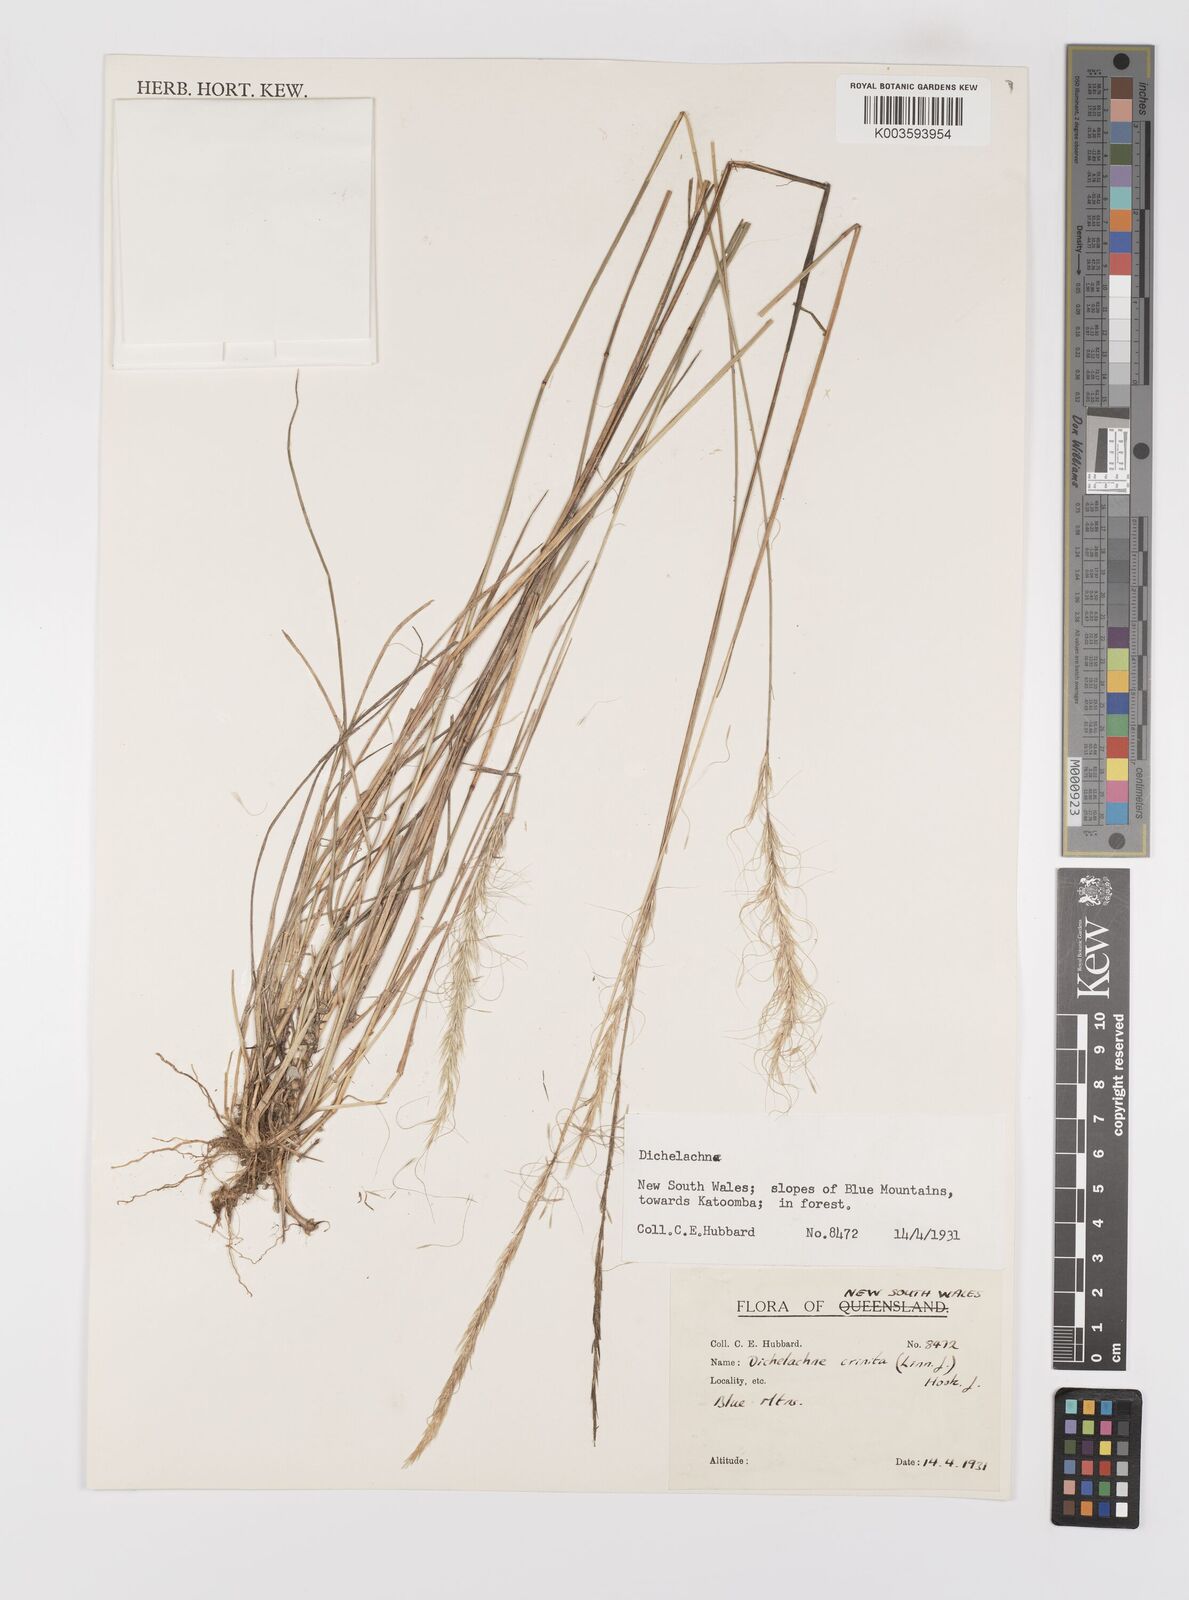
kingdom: Plantae
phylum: Tracheophyta
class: Liliopsida
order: Poales
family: Poaceae
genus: Dichelachne
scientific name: Dichelachne
